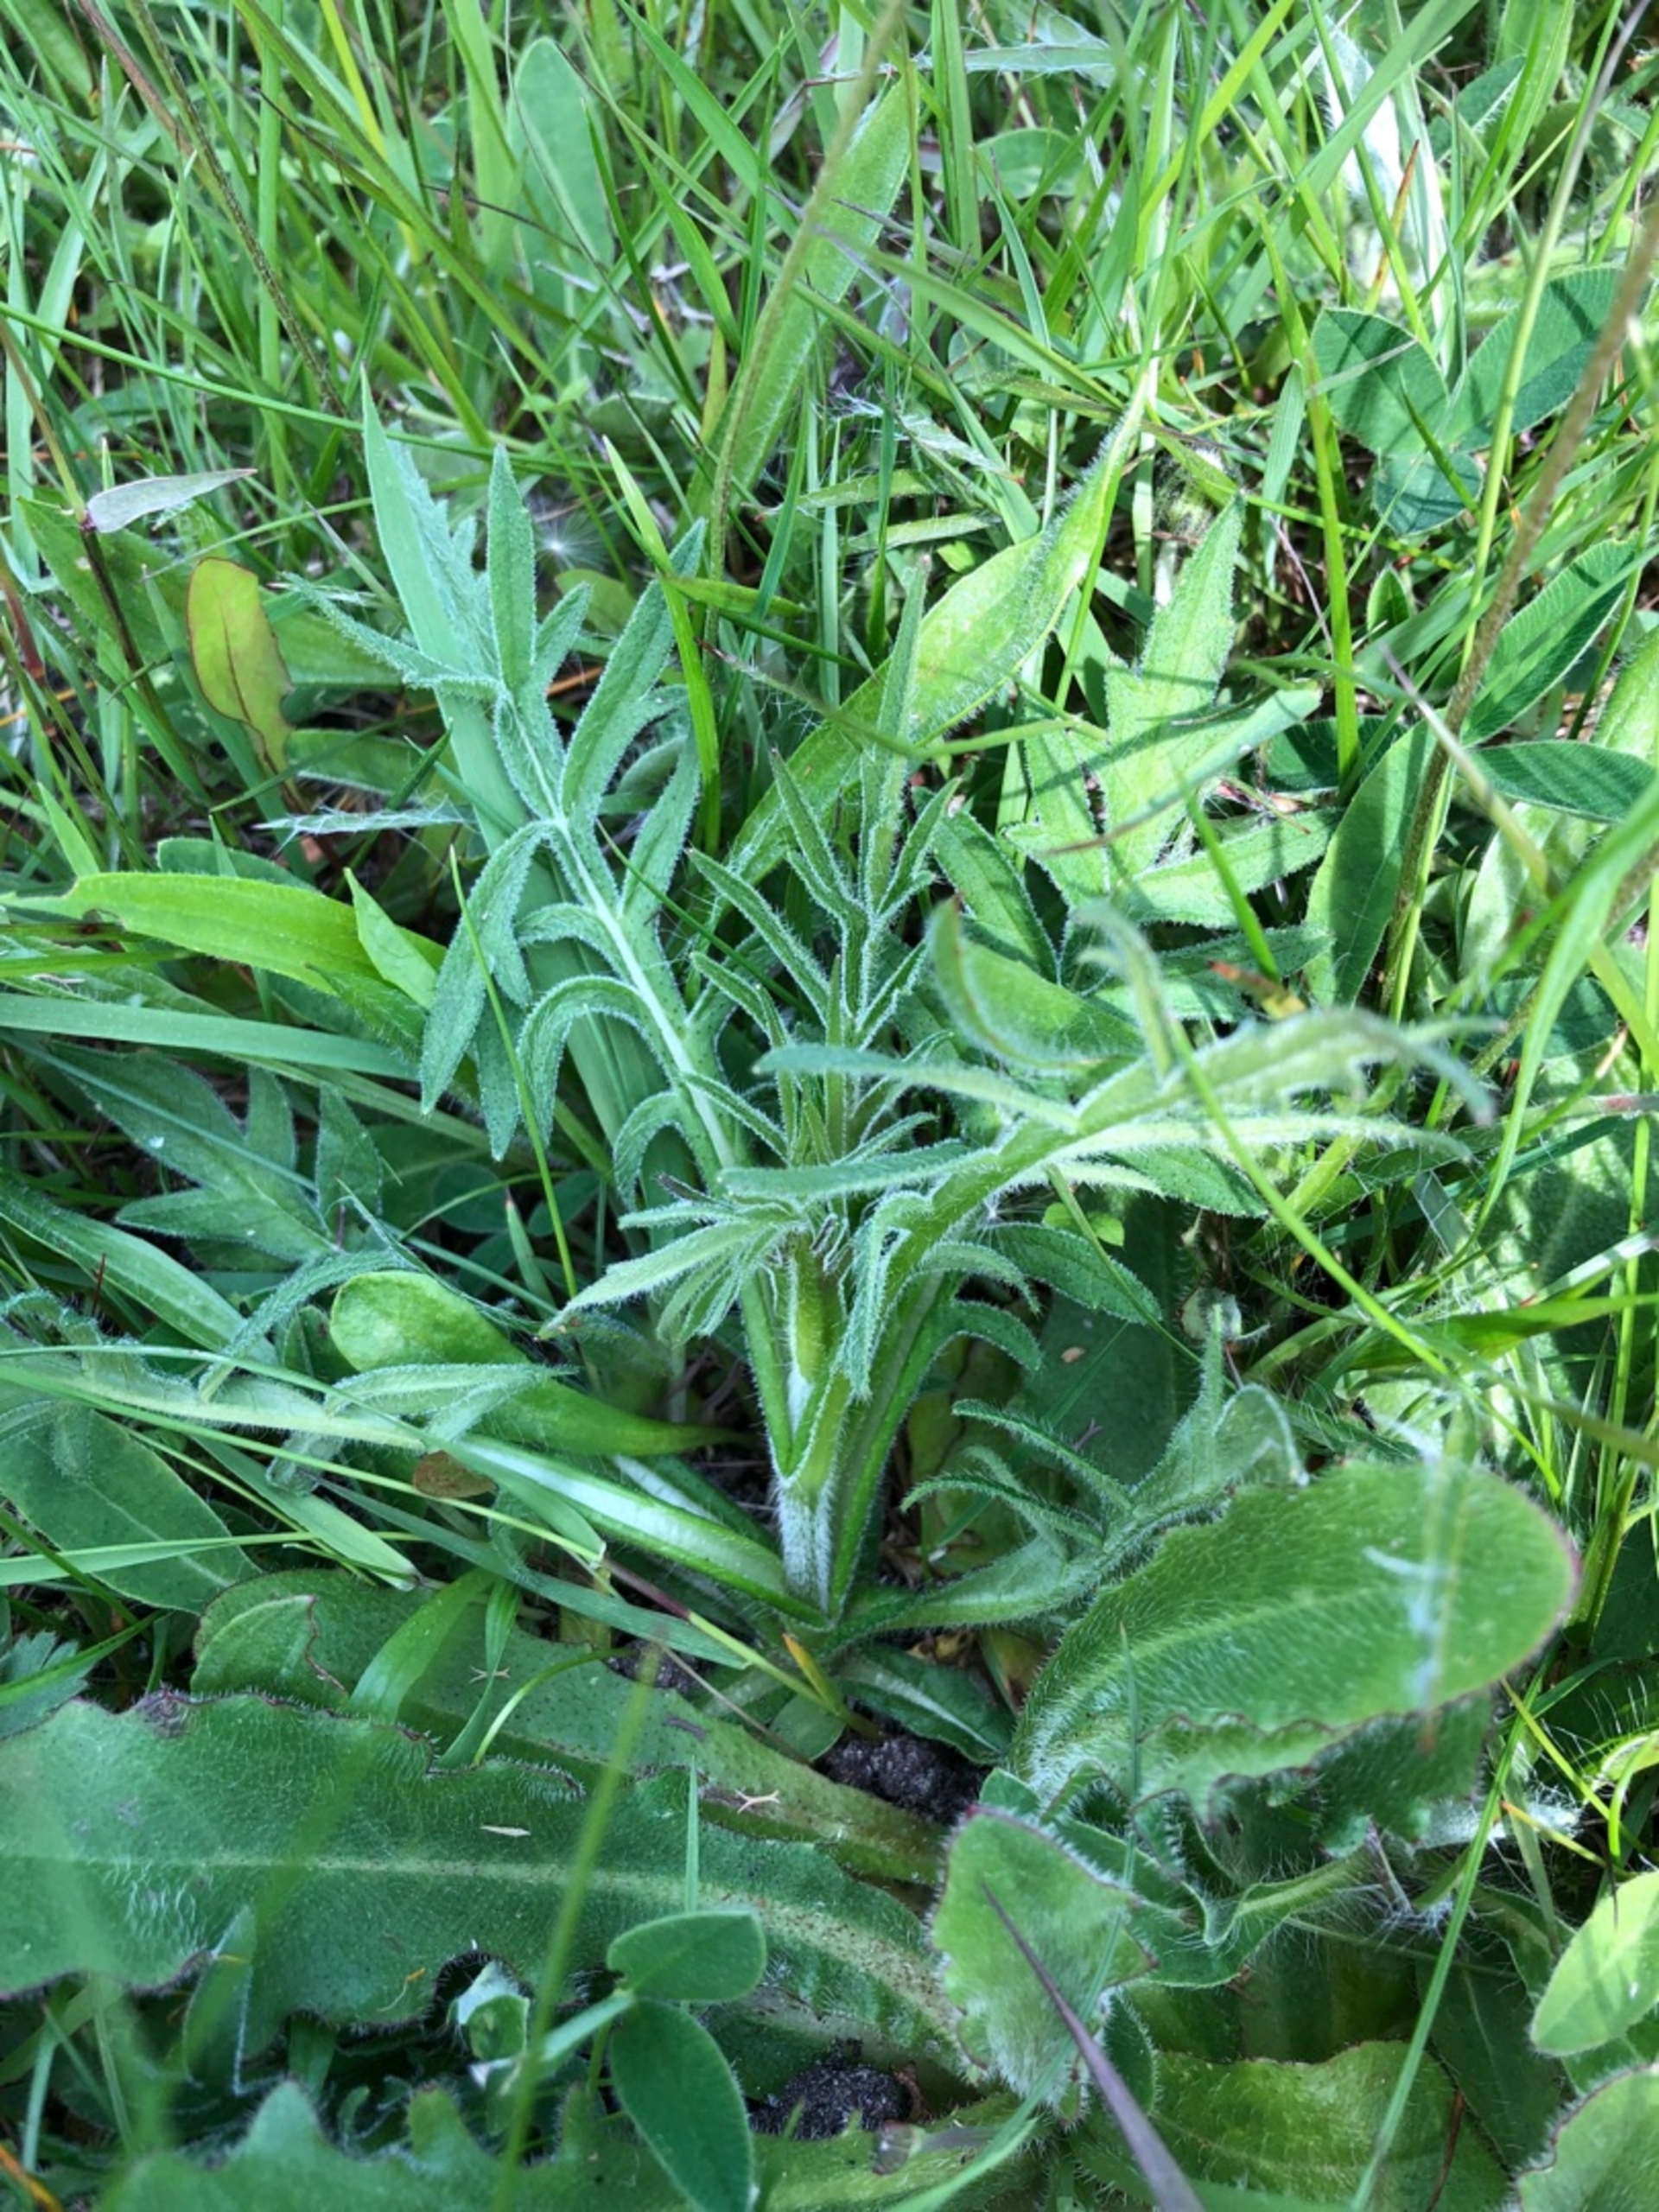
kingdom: Plantae
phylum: Tracheophyta
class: Magnoliopsida
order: Dipsacales
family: Caprifoliaceae
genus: Knautia
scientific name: Knautia arvensis
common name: Blåhat
